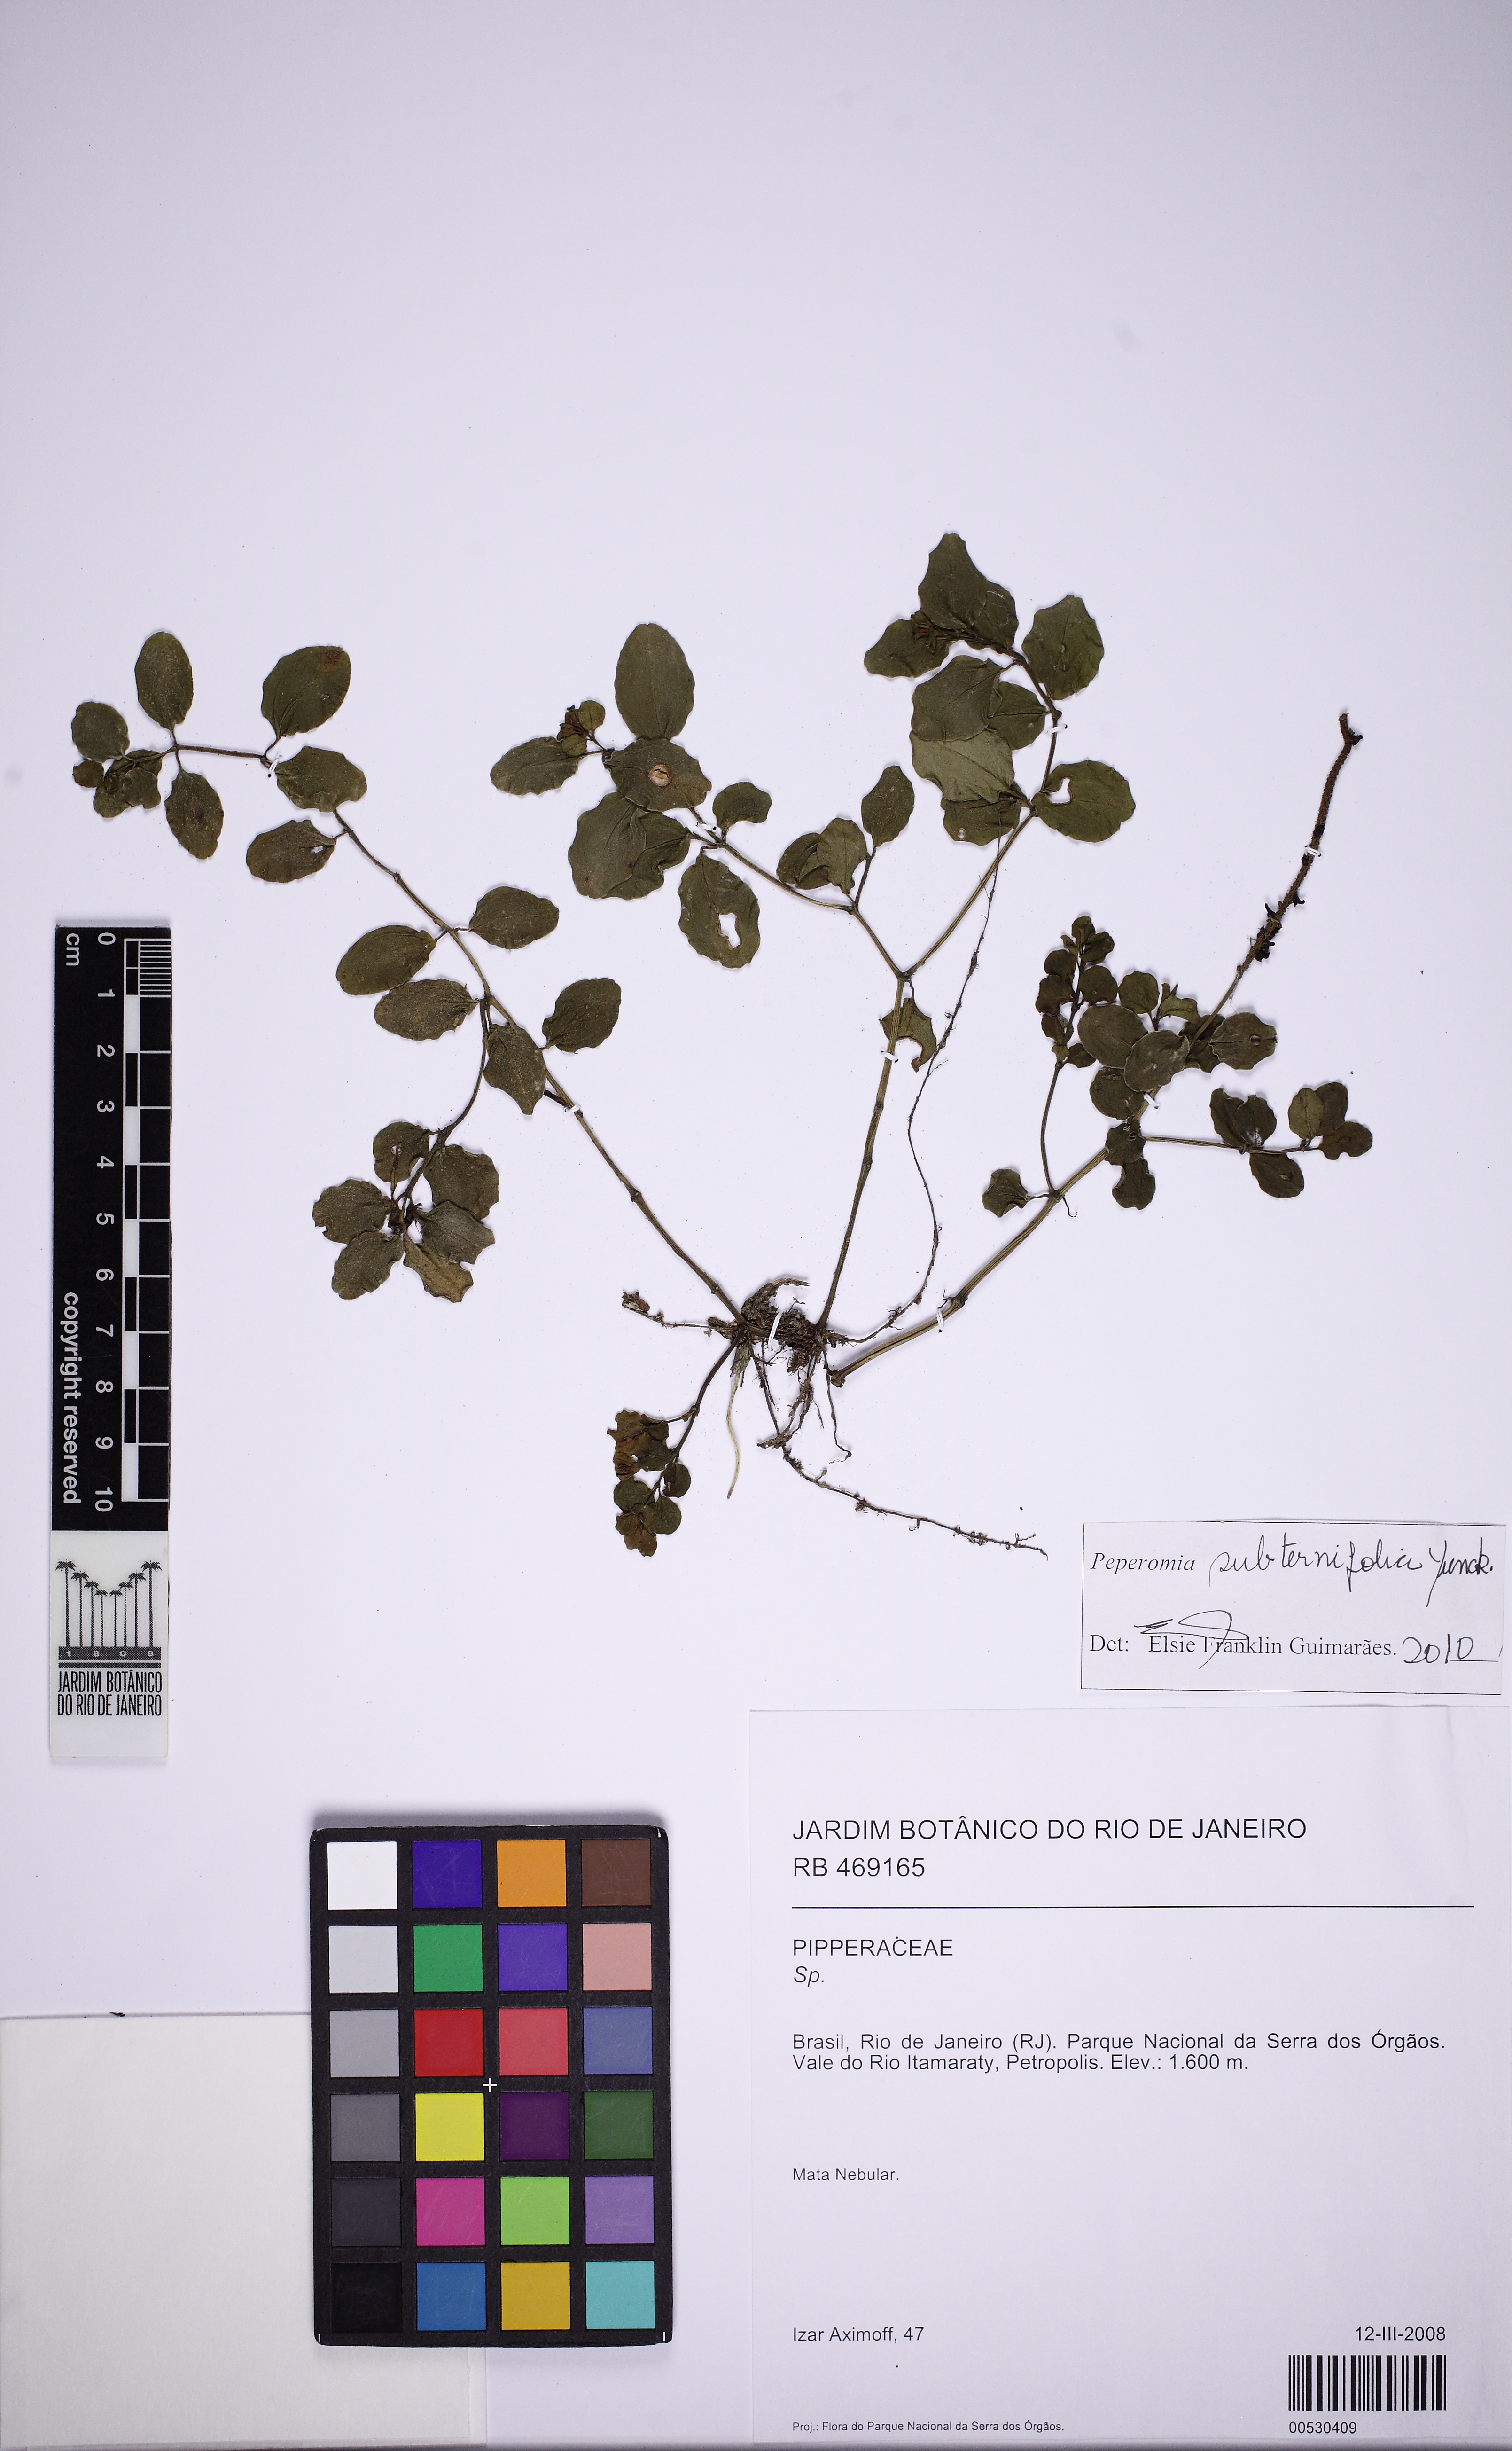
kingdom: Plantae
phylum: Tracheophyta
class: Magnoliopsida
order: Piperales
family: Piperaceae
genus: Peperomia
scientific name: Peperomia subternifolia
